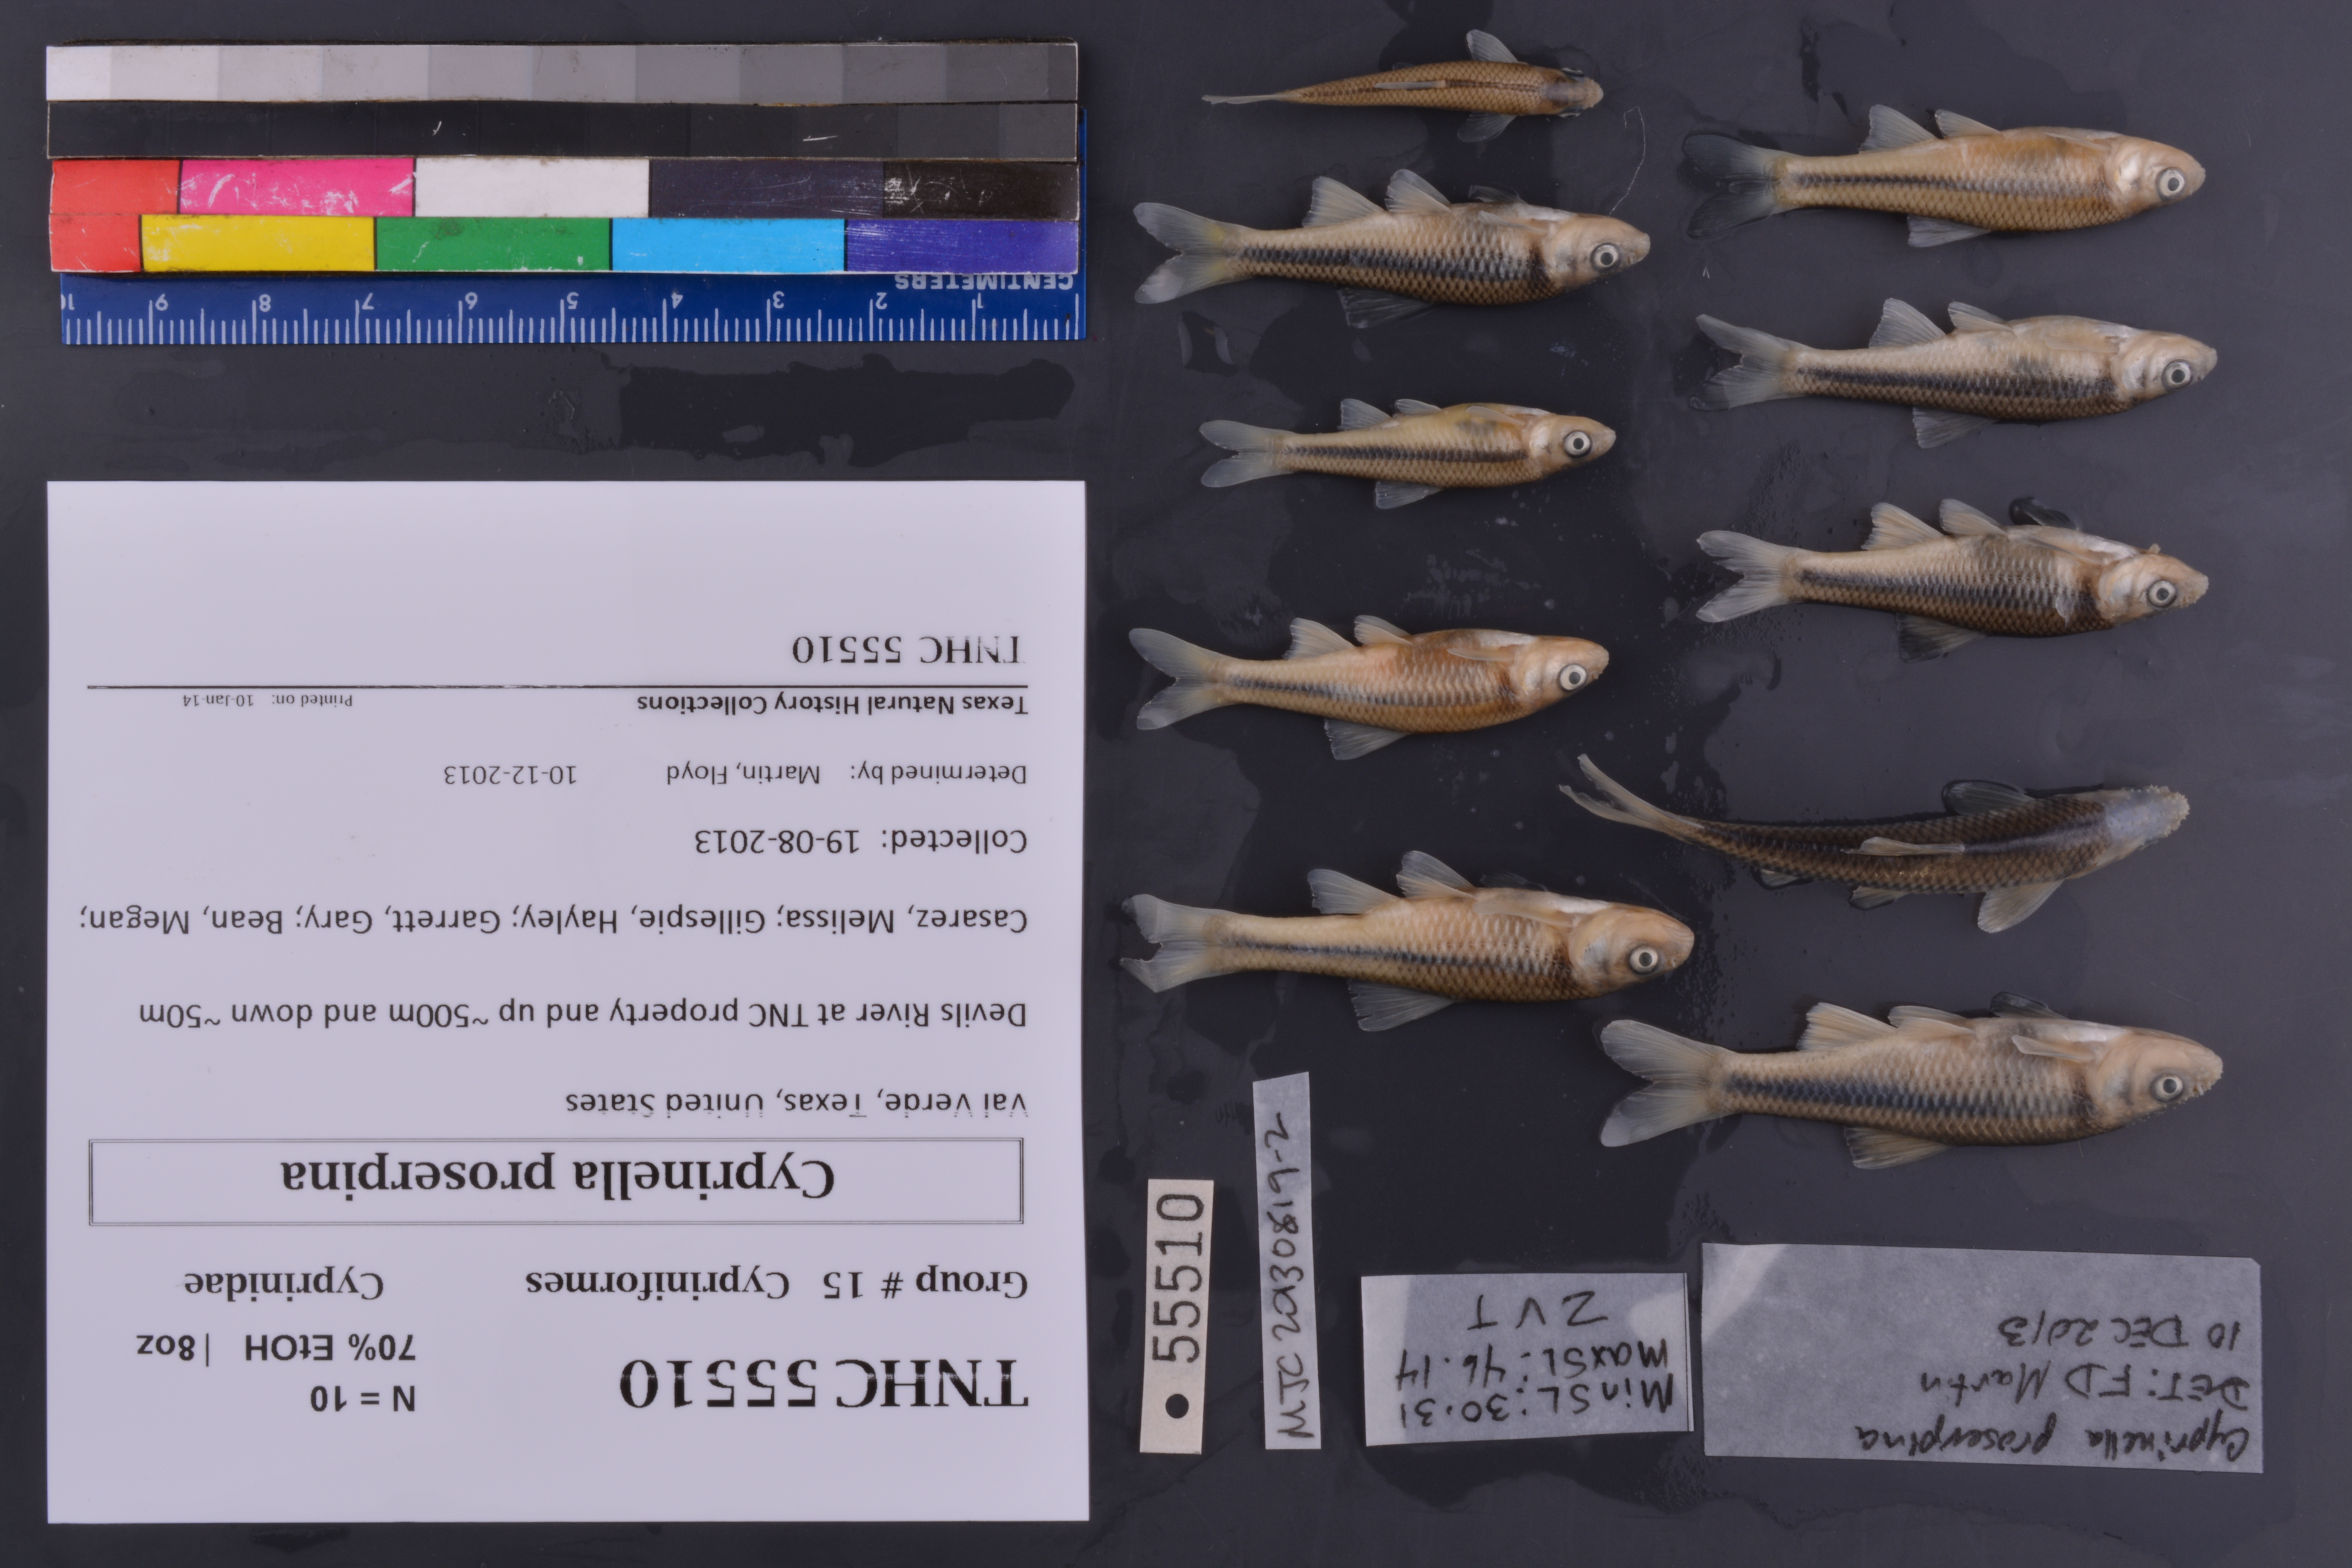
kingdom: Animalia
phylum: Chordata
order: Cypriniformes
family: Cyprinidae
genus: Cyprinella
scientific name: Cyprinella proserpina
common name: Proserpine shiner
